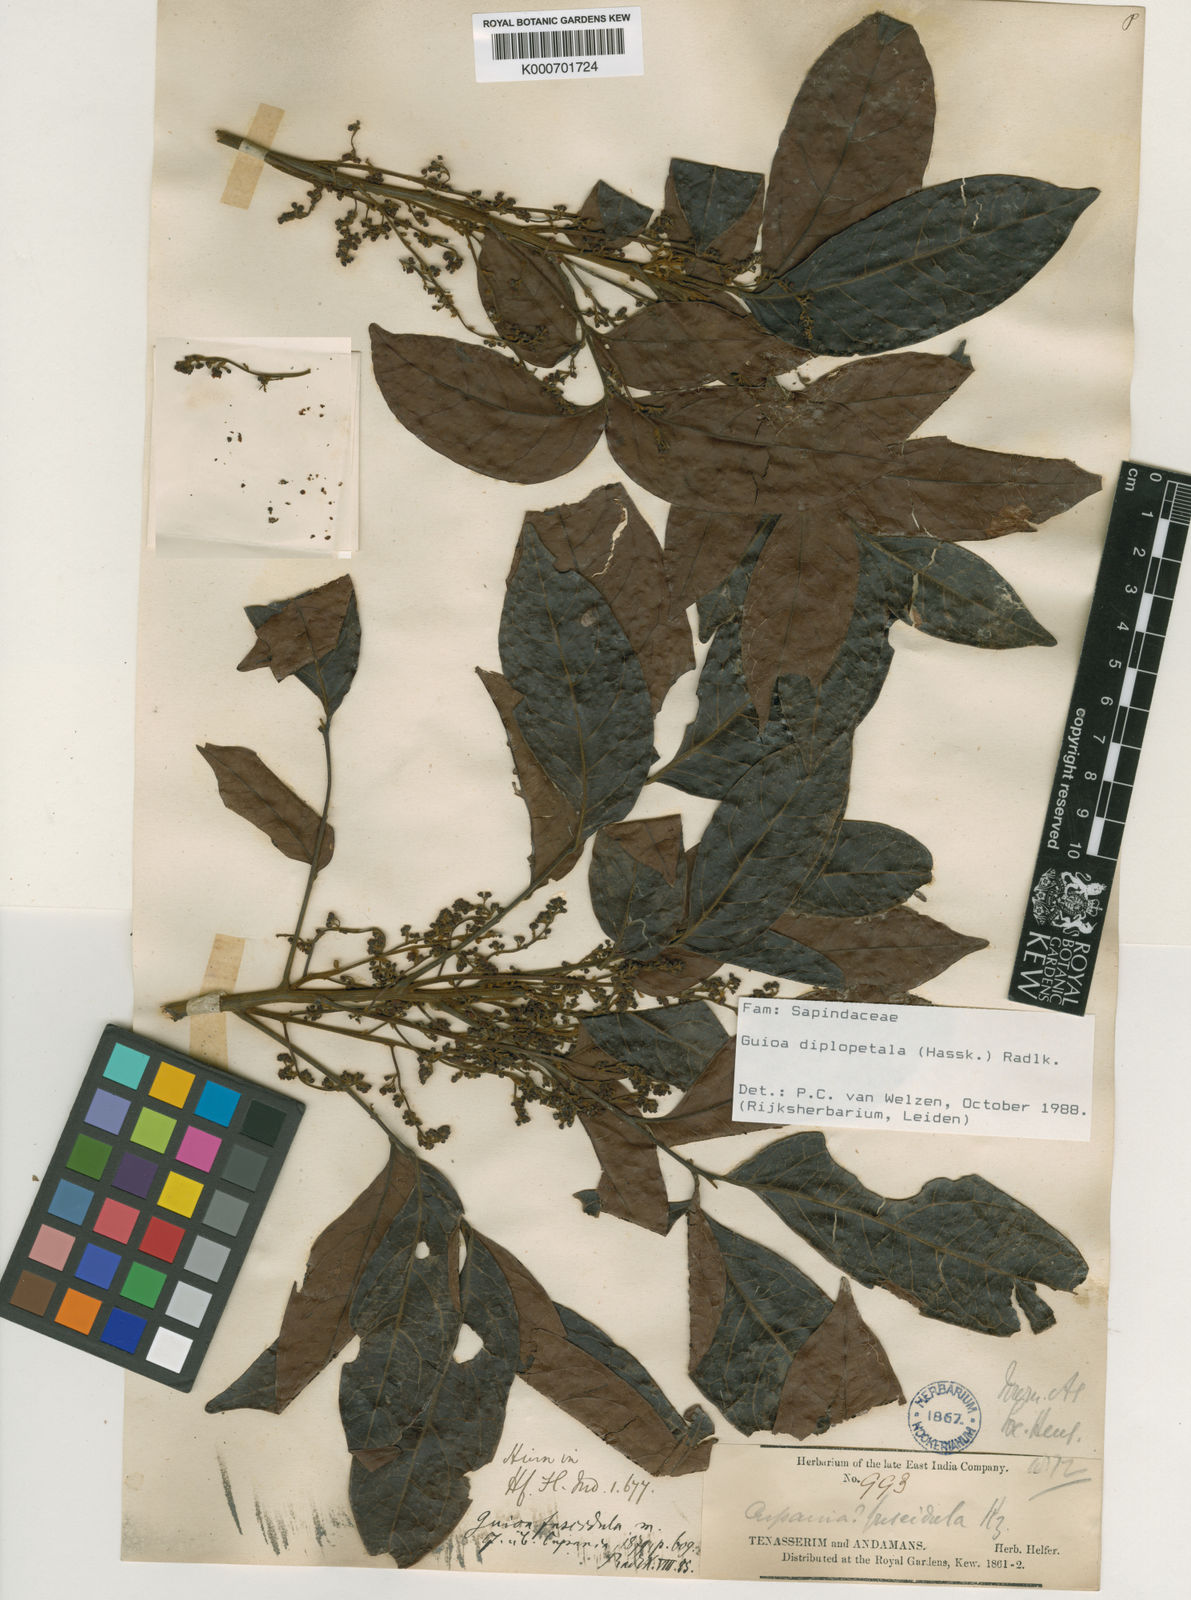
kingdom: Plantae
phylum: Tracheophyta
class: Magnoliopsida
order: Sapindales
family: Sapindaceae
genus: Guioa
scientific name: Guioa diplopetala
